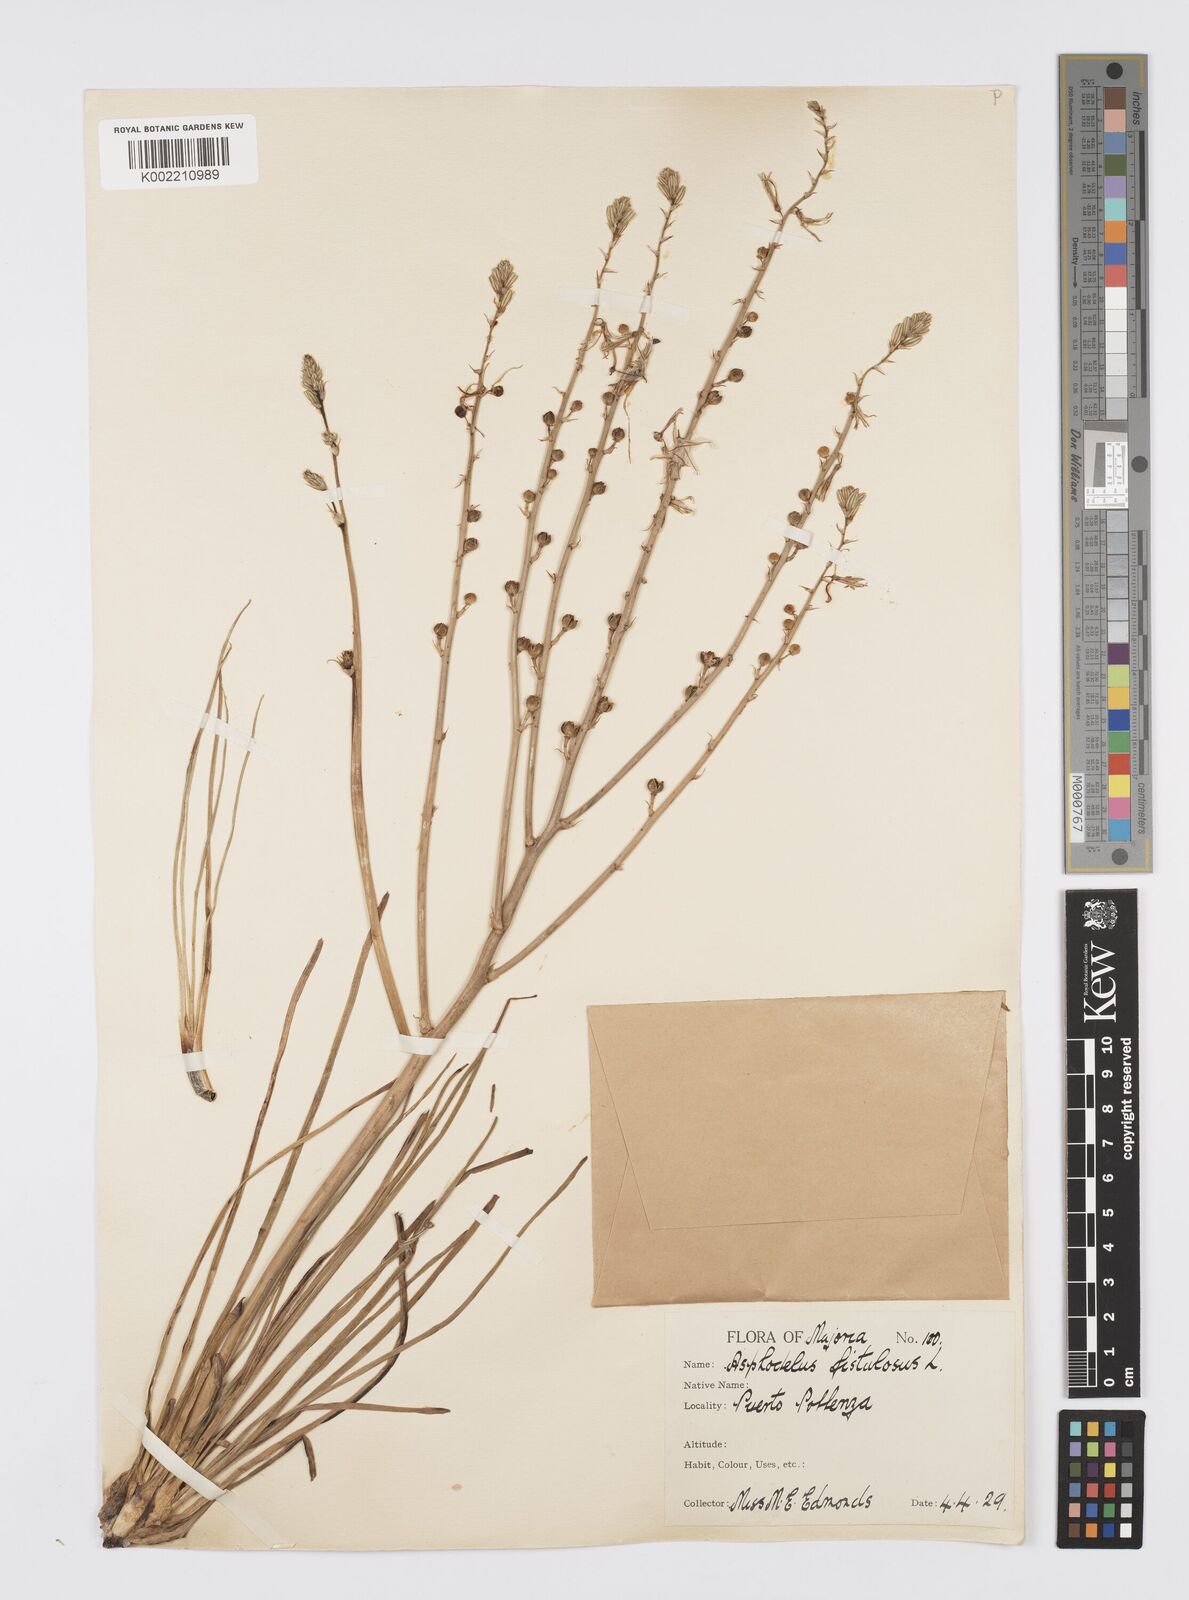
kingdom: Plantae
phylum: Tracheophyta
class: Liliopsida
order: Asparagales
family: Asphodelaceae
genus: Asphodelus
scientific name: Asphodelus fistulosus
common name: Onionweed
